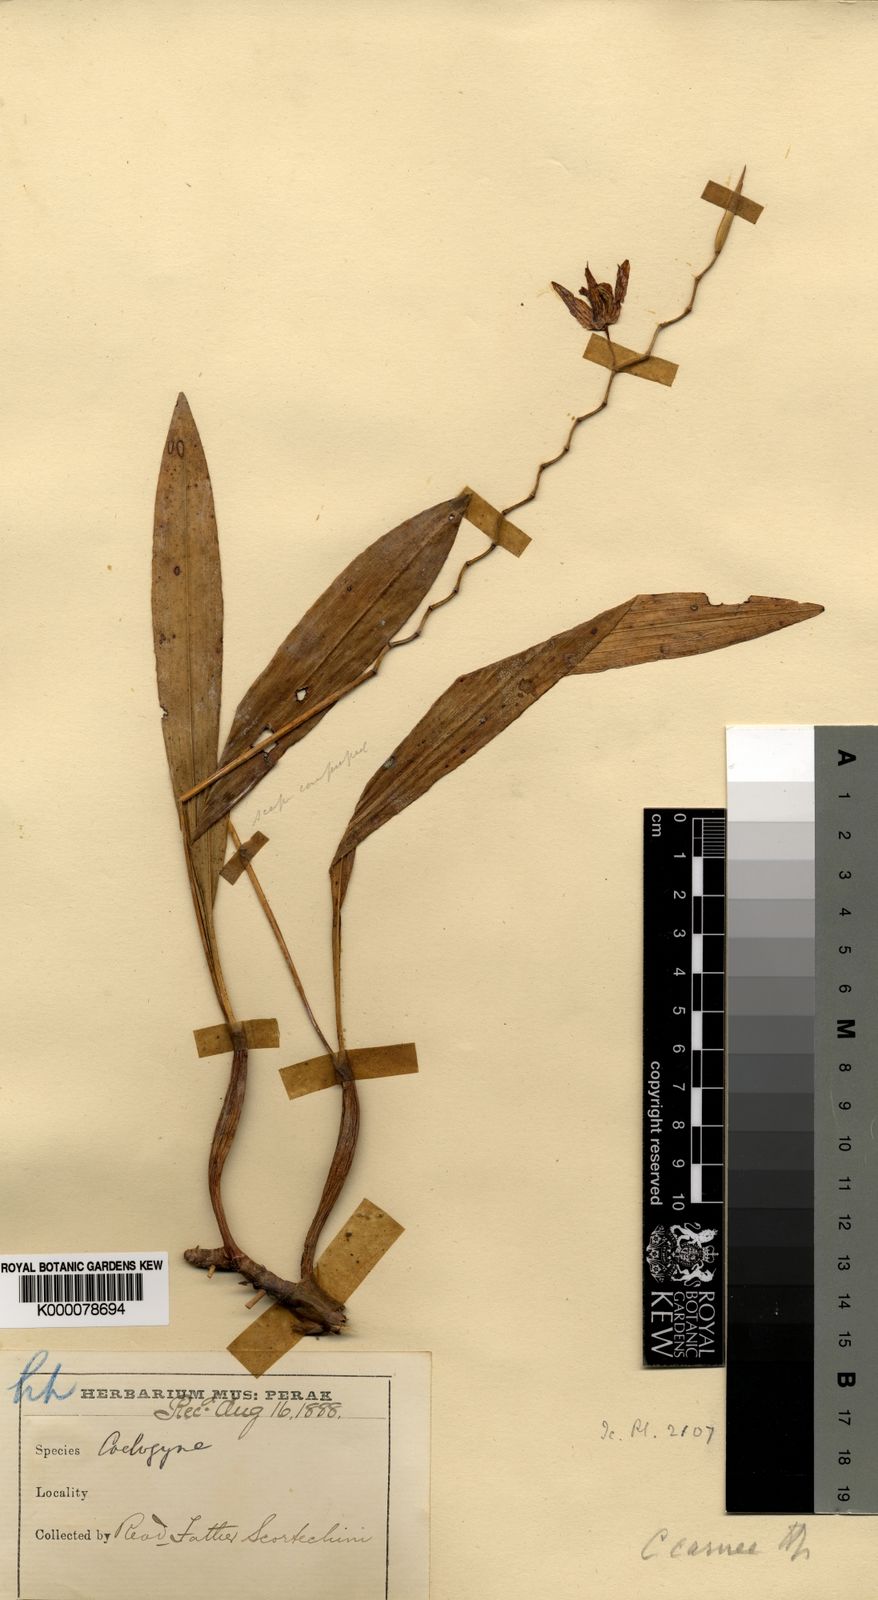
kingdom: Plantae
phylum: Tracheophyta
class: Liliopsida
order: Asparagales
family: Orchidaceae
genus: Coelogyne
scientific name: Coelogyne radicosa
